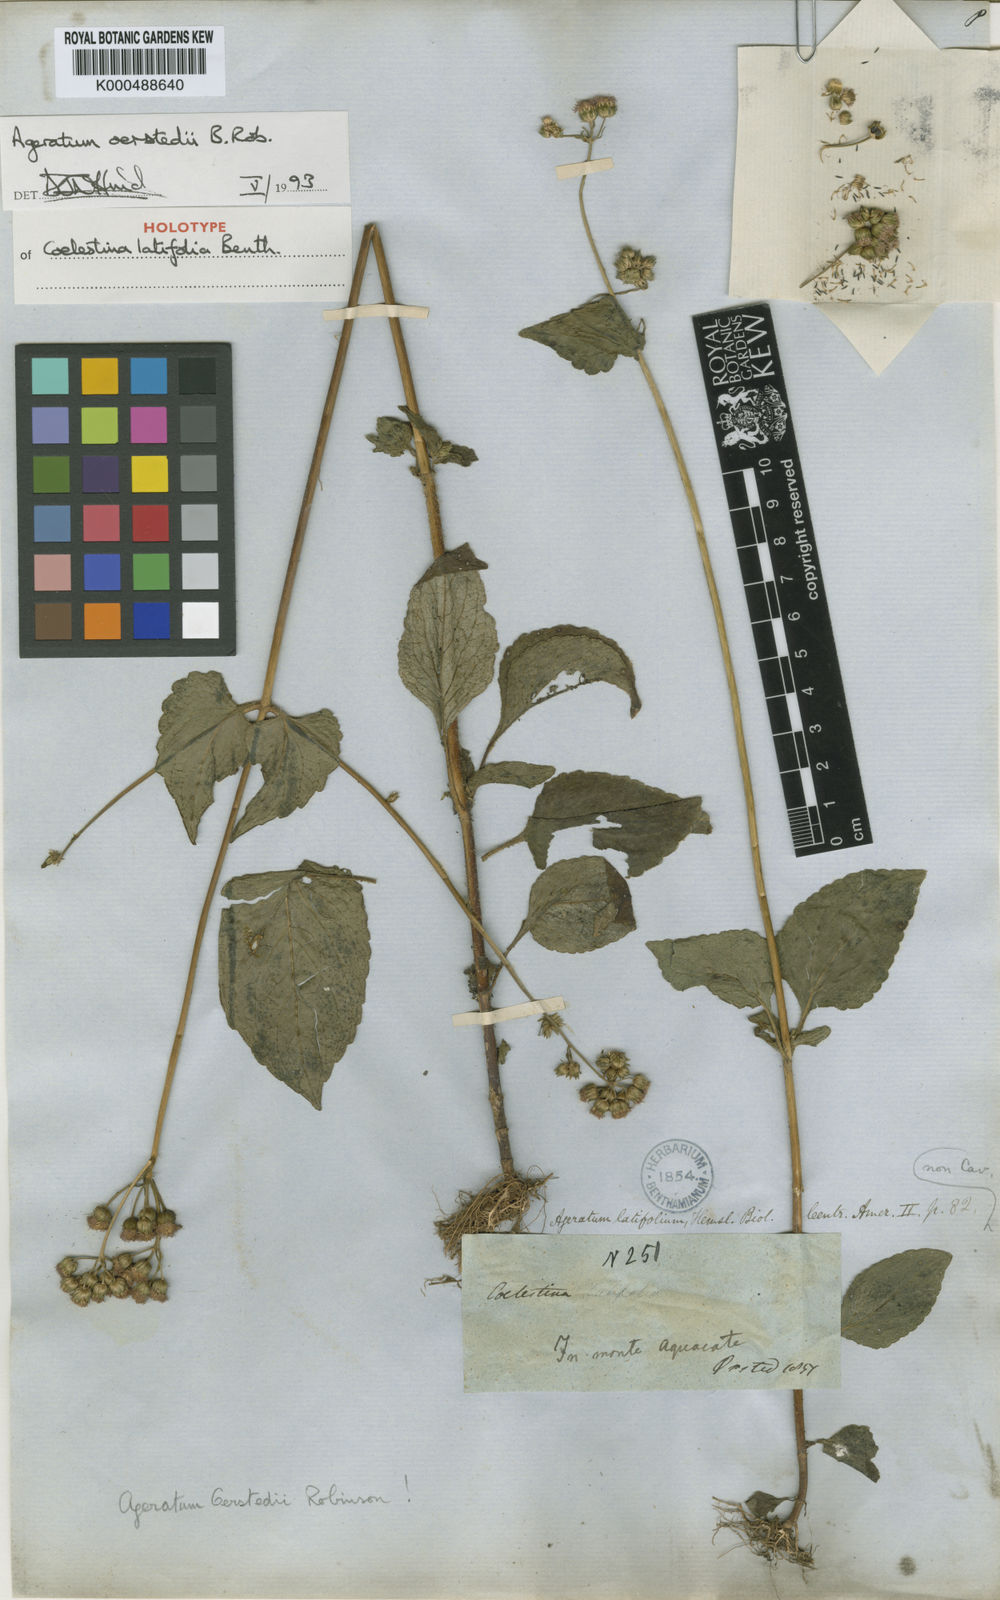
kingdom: Plantae
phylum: Tracheophyta
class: Magnoliopsida
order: Asterales
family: Asteraceae
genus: Ageratum
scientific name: Ageratum oerstedii
